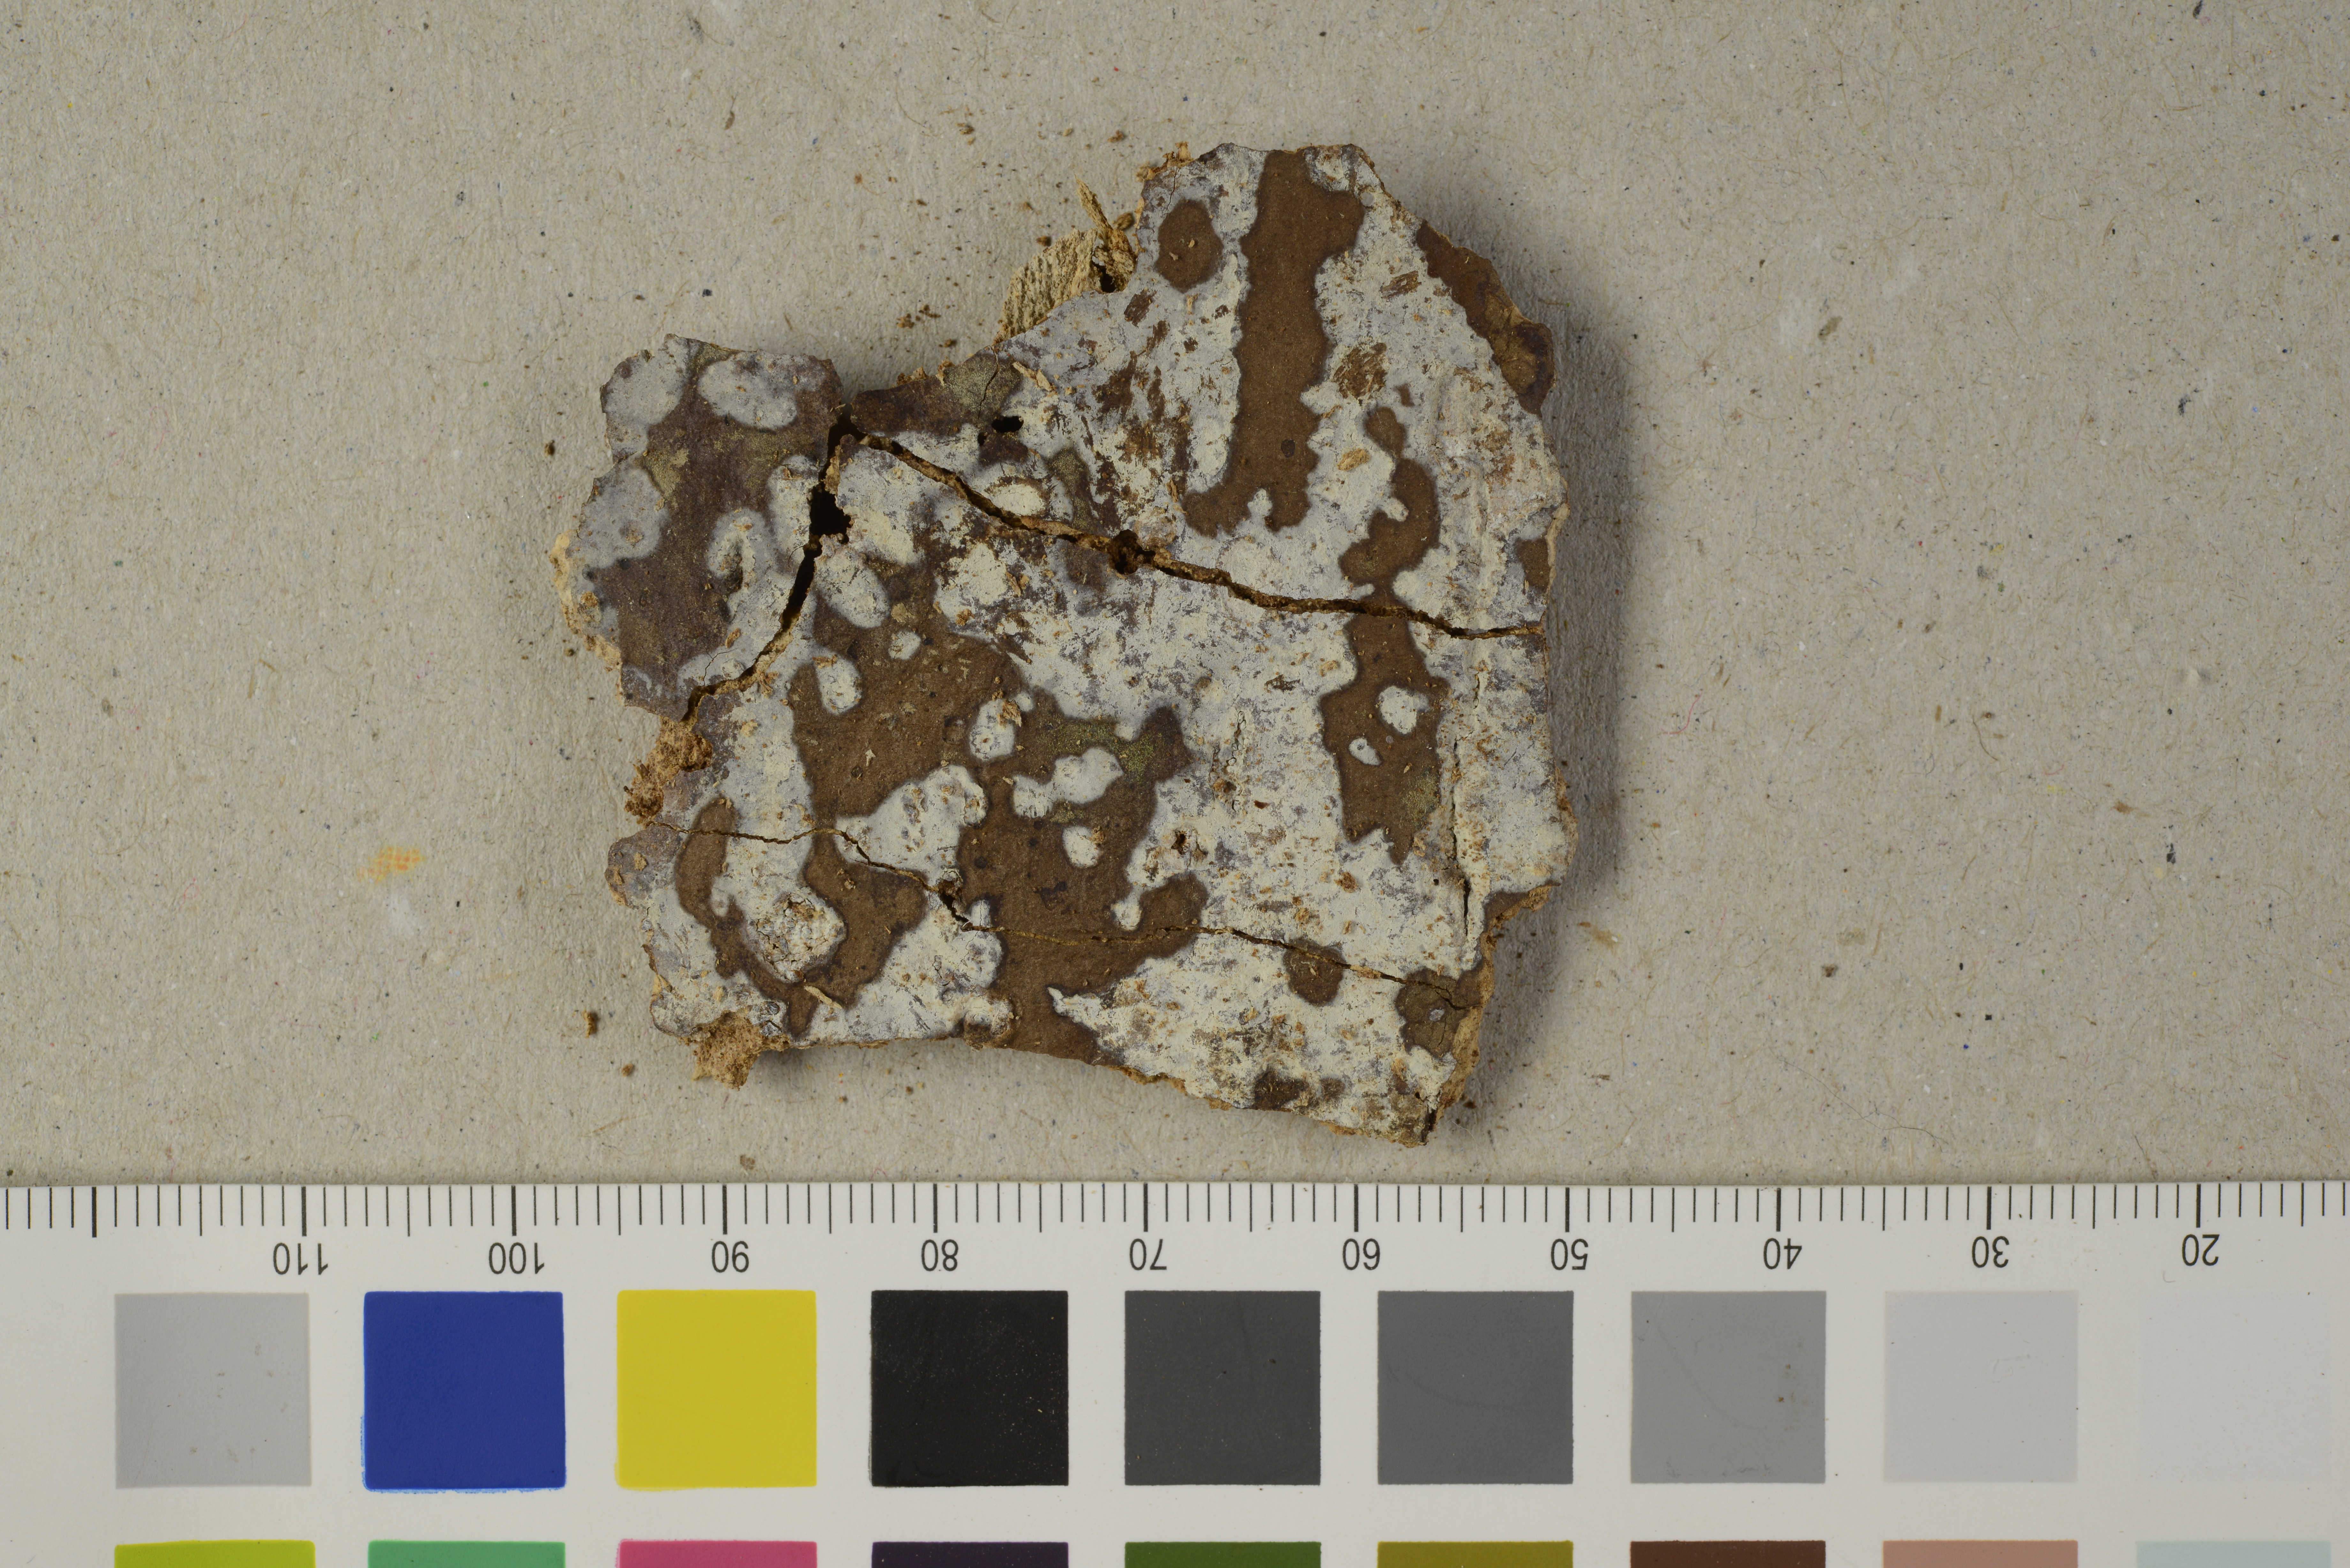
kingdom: Fungi
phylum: Basidiomycota
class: Agaricomycetes
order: Corticiales
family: Corticiaceae
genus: Leptocorticium
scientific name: Leptocorticium capitulatum
